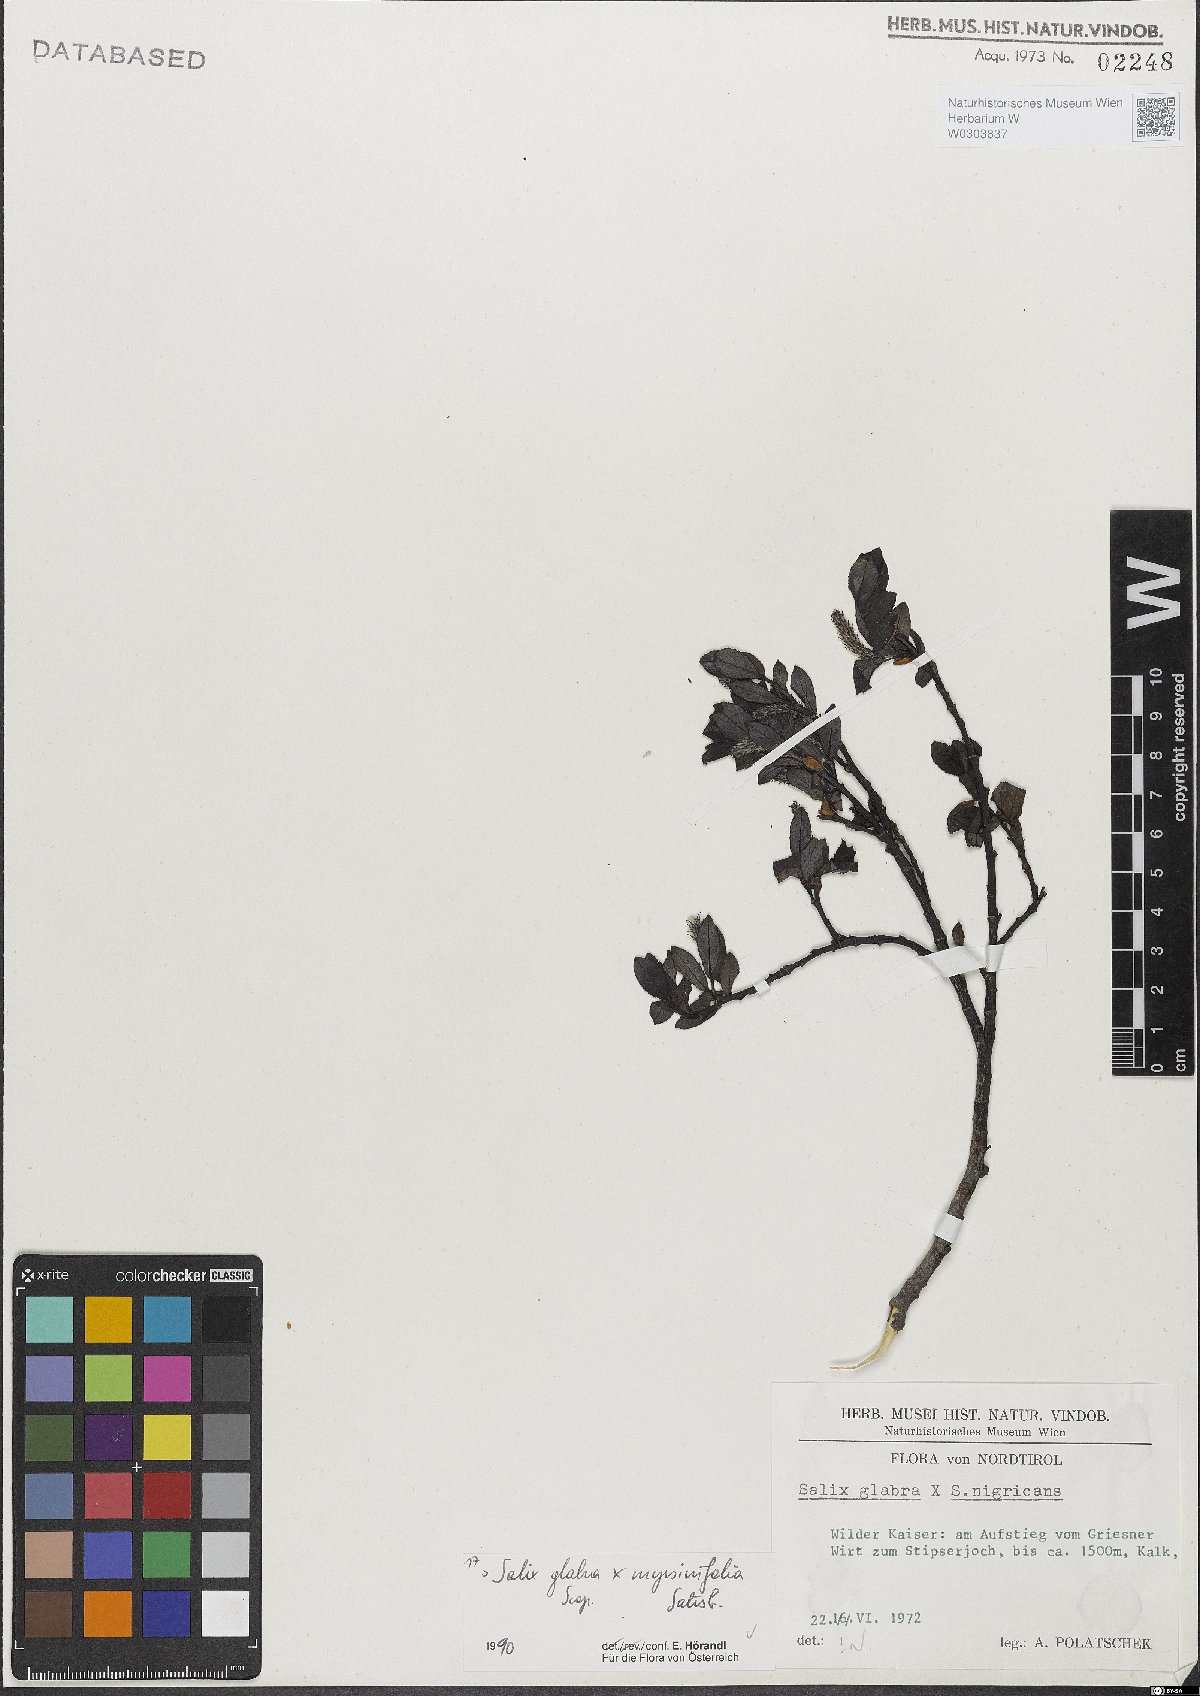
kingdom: Plantae
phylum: Tracheophyta
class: Magnoliopsida
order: Malpighiales
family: Salicaceae
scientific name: Salicaceae
